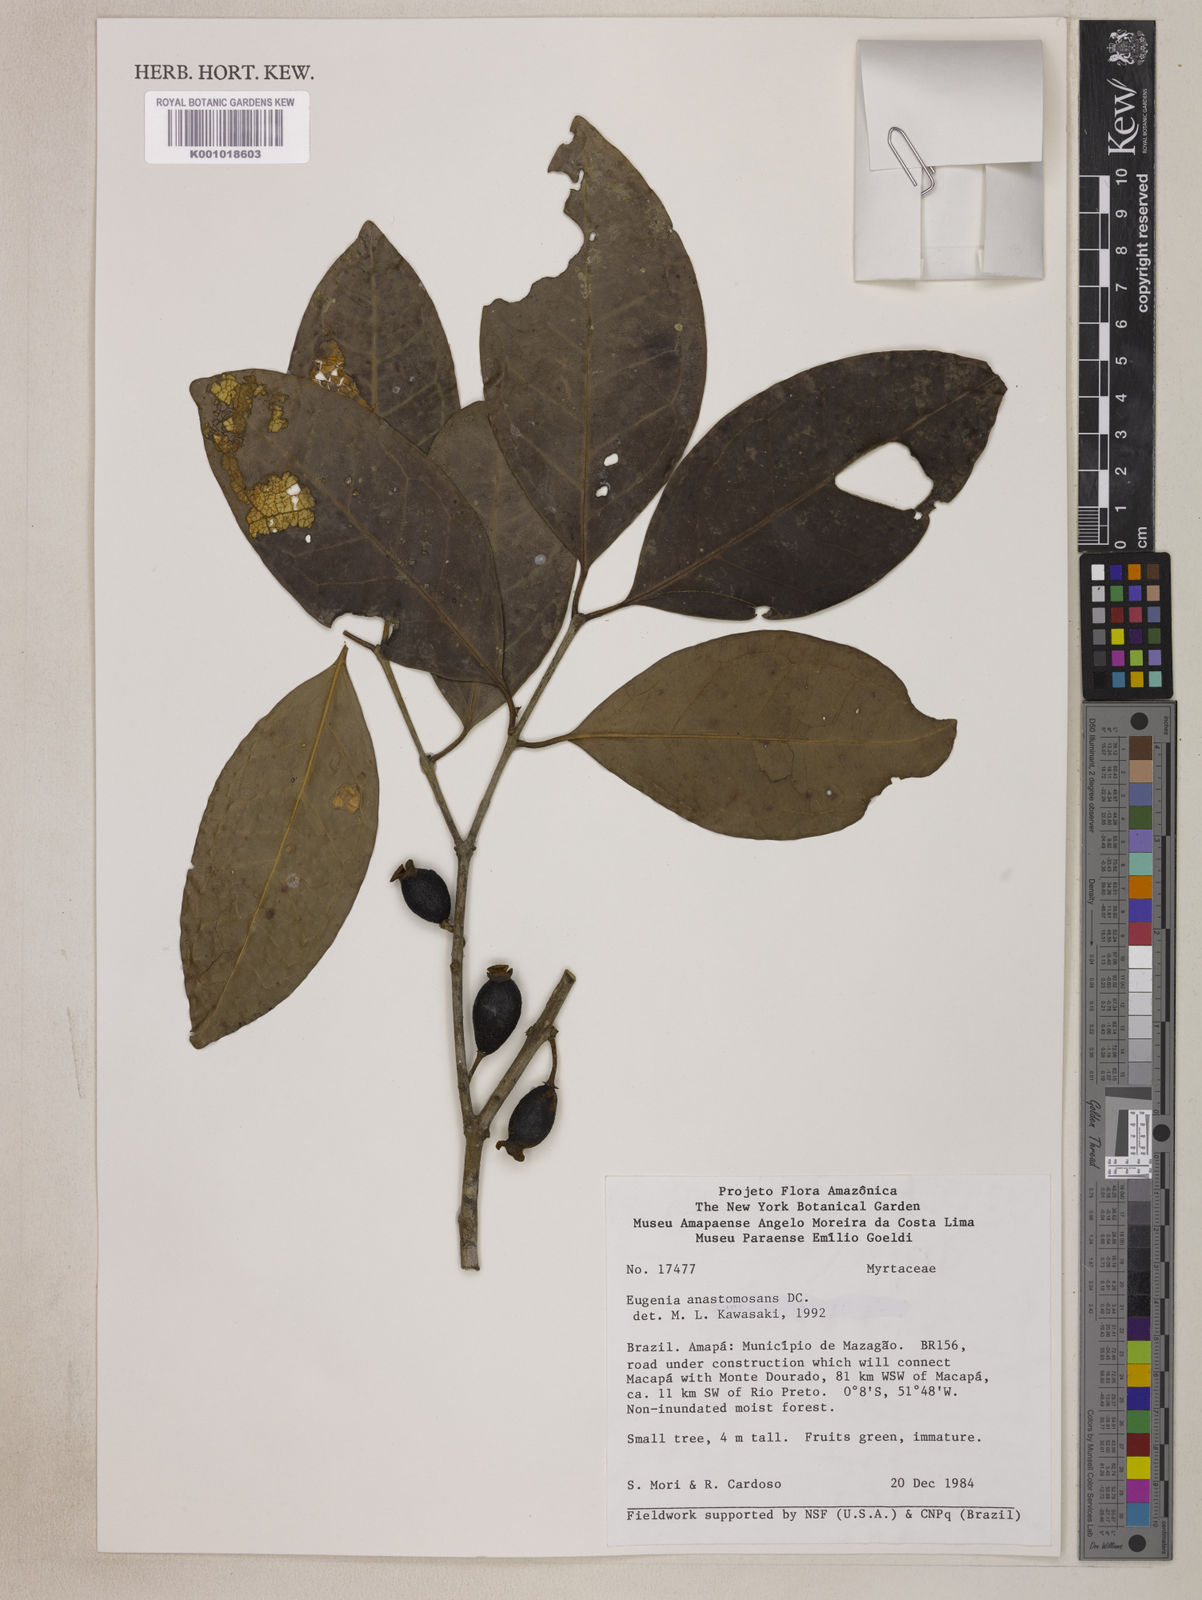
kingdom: Plantae
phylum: Tracheophyta
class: Magnoliopsida
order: Myrtales
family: Myrtaceae
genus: Eugenia
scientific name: Eugenia anastomosans
